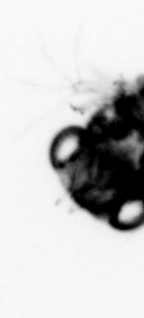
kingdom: Animalia
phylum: Arthropoda
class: Malacostraca
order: Decapoda
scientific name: Decapoda
